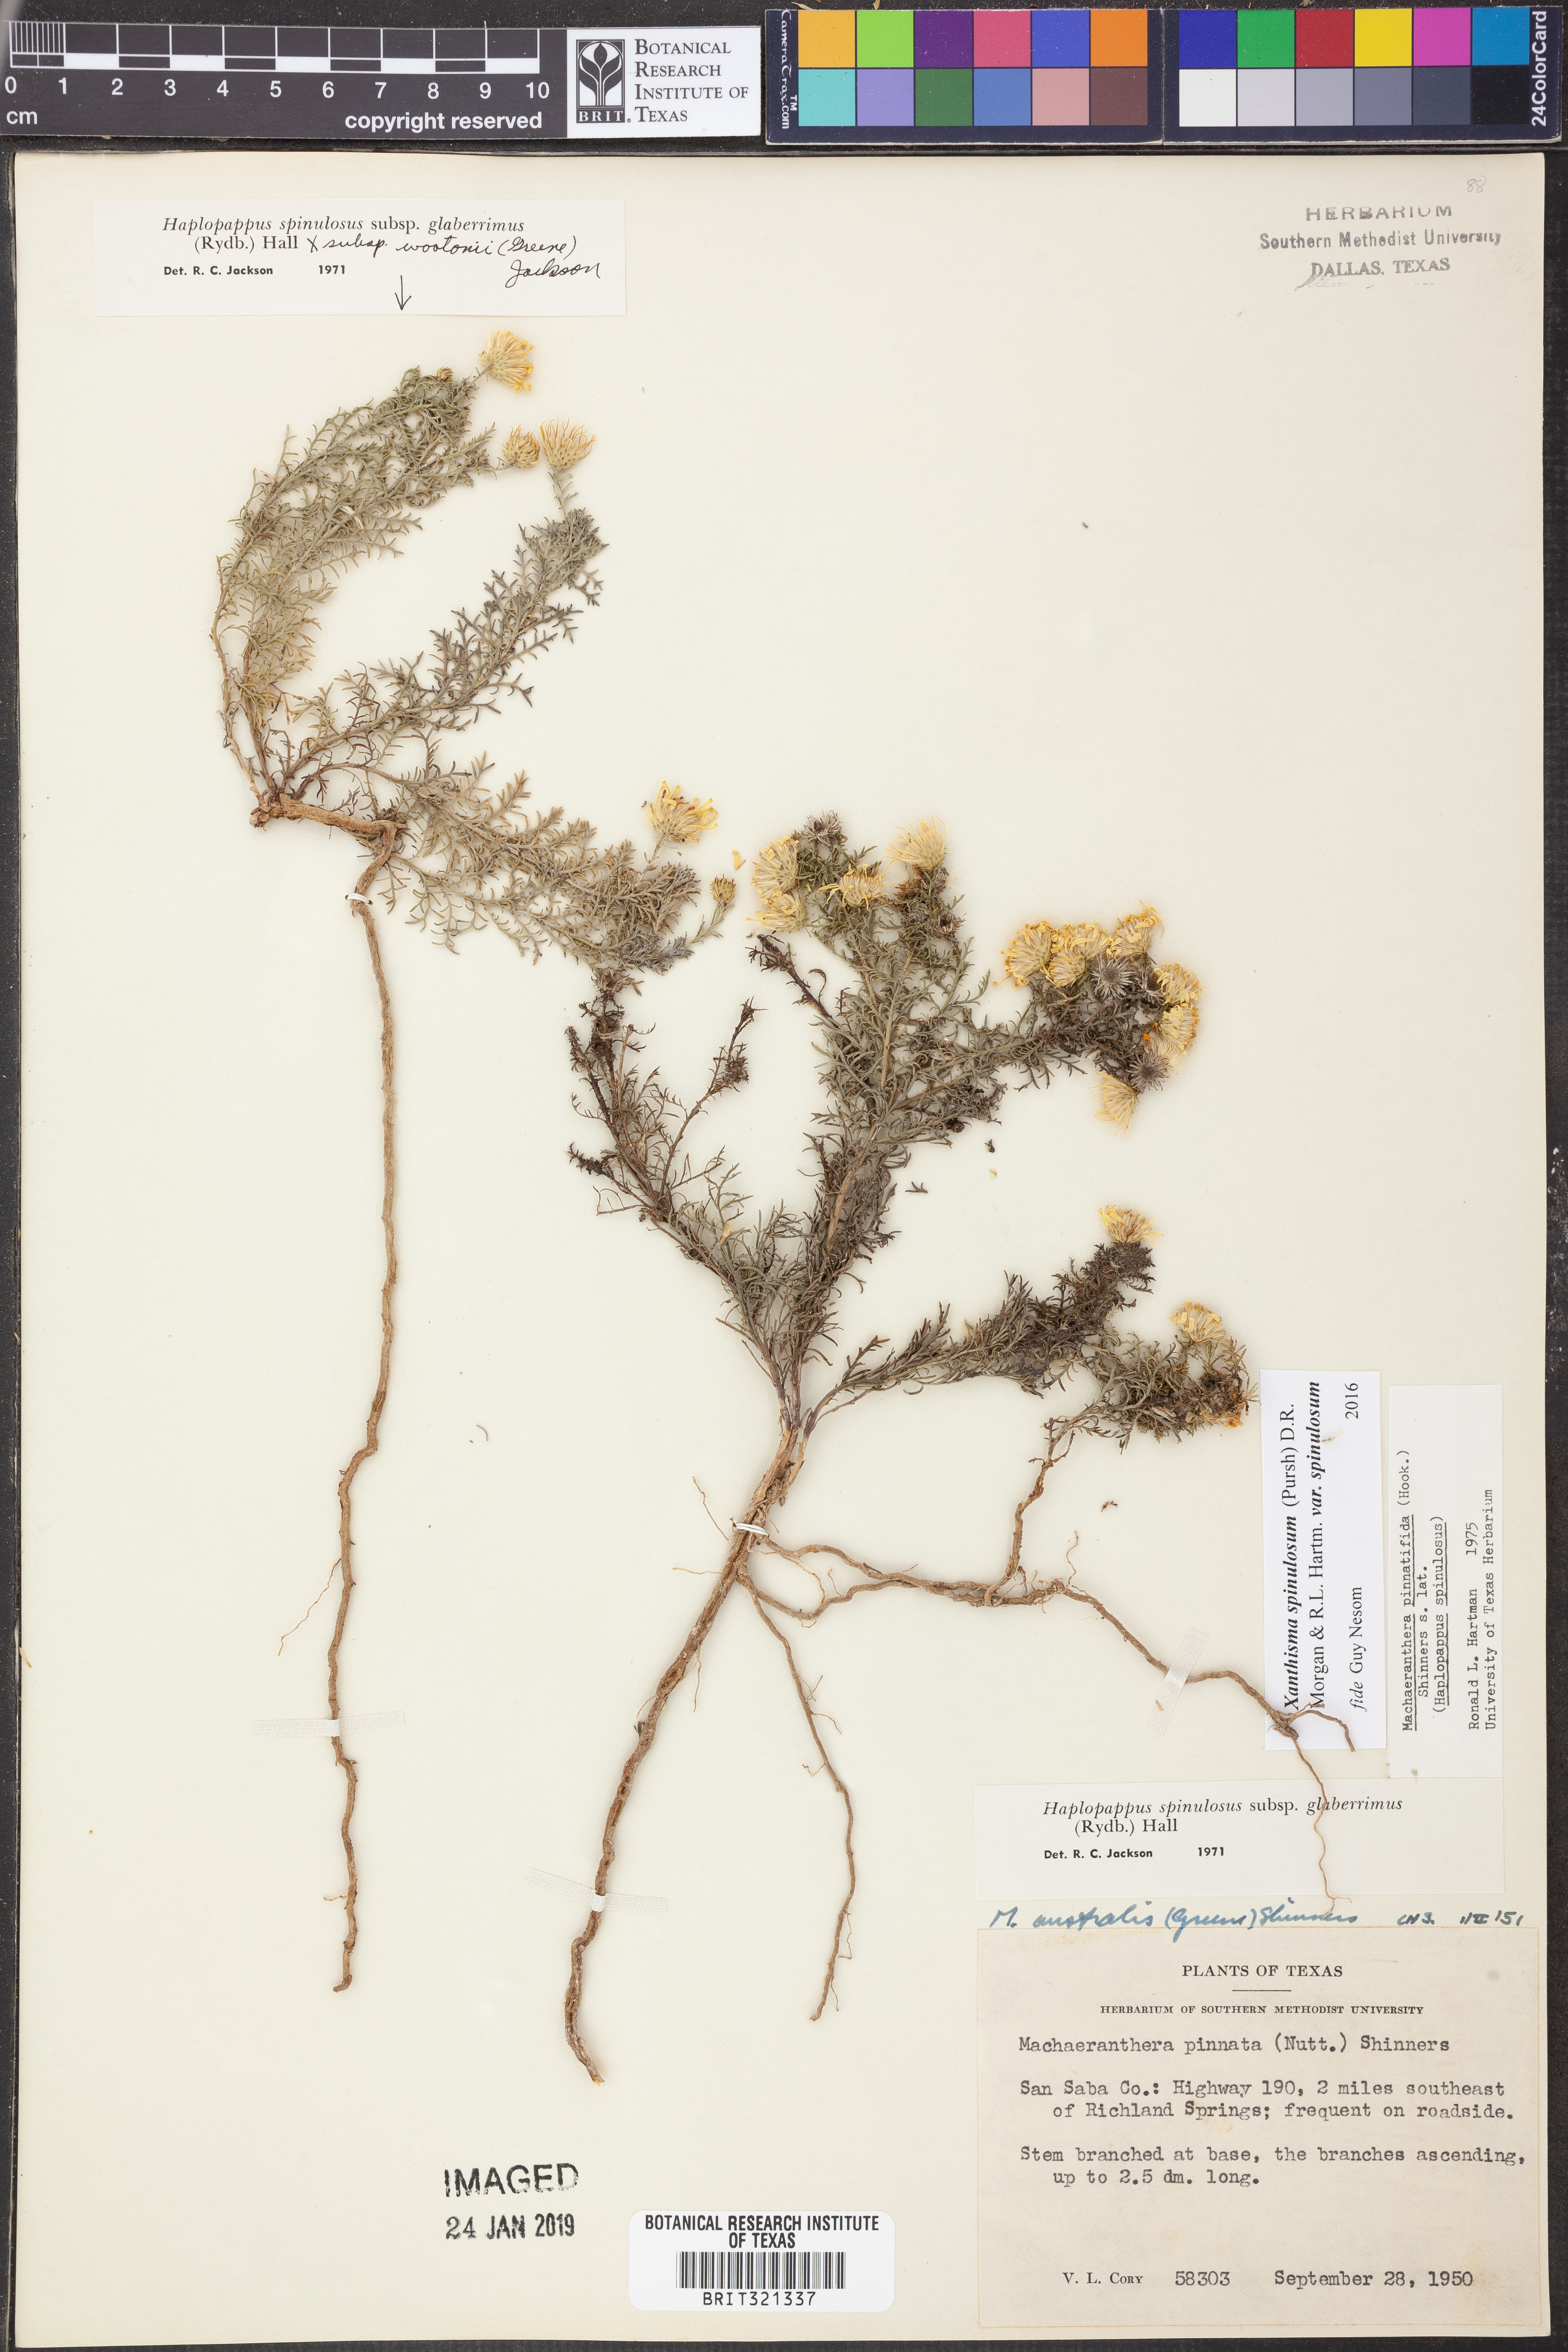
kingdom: Plantae
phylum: Tracheophyta
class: Magnoliopsida
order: Asterales
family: Asteraceae
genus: Xanthisma
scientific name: Xanthisma spinulosum
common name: Spiny goldenweed
